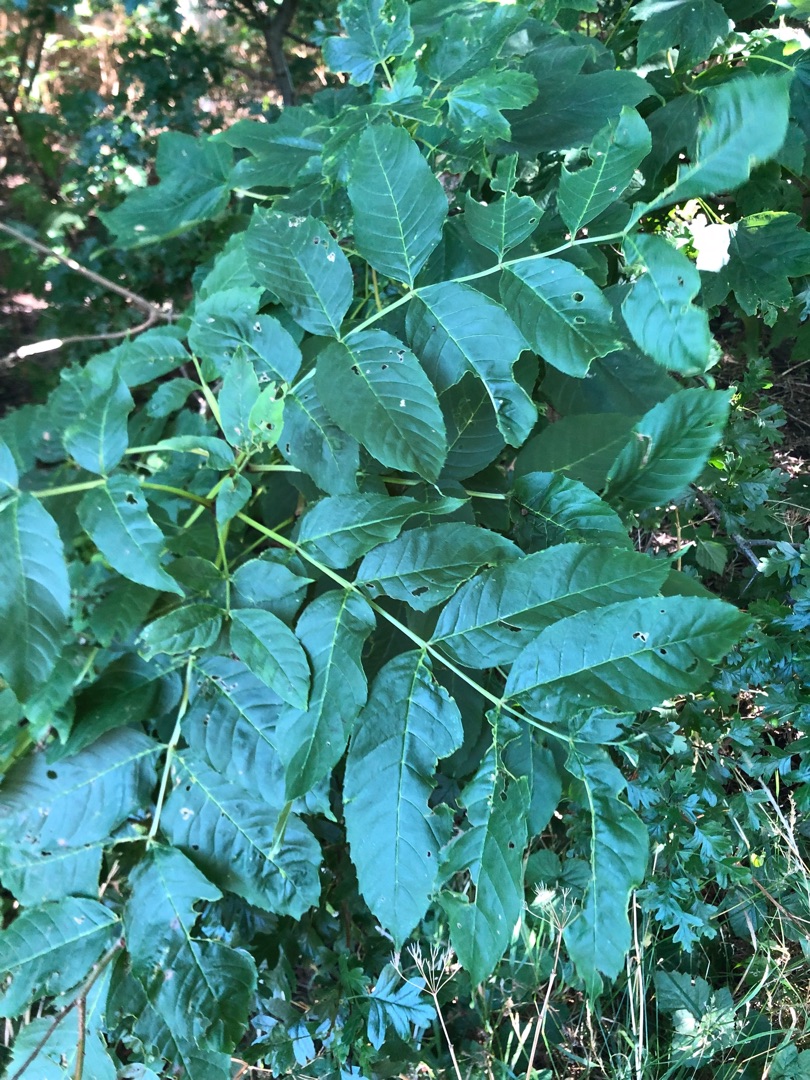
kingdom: Plantae
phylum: Tracheophyta
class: Magnoliopsida
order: Lamiales
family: Oleaceae
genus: Fraxinus
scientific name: Fraxinus excelsior
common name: Ask
